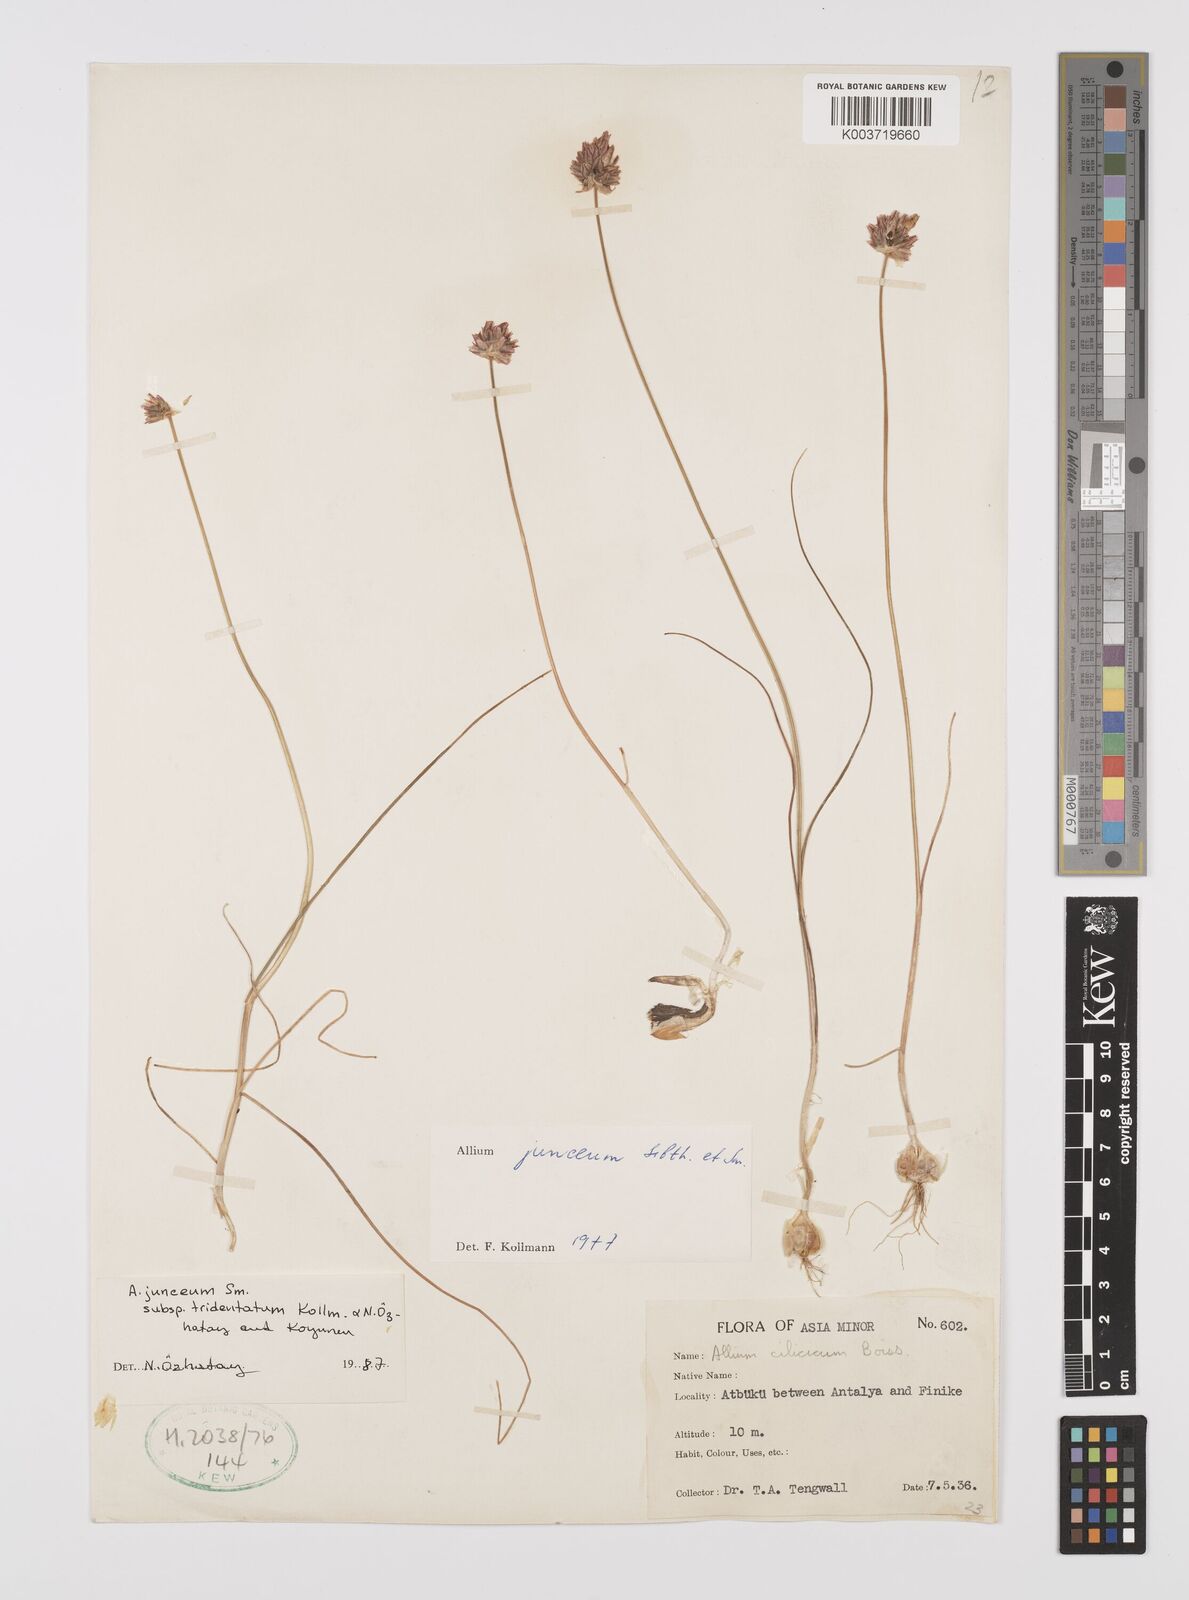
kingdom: Plantae
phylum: Tracheophyta
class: Liliopsida
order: Asparagales
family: Amaryllidaceae
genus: Allium
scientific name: Allium junceum
